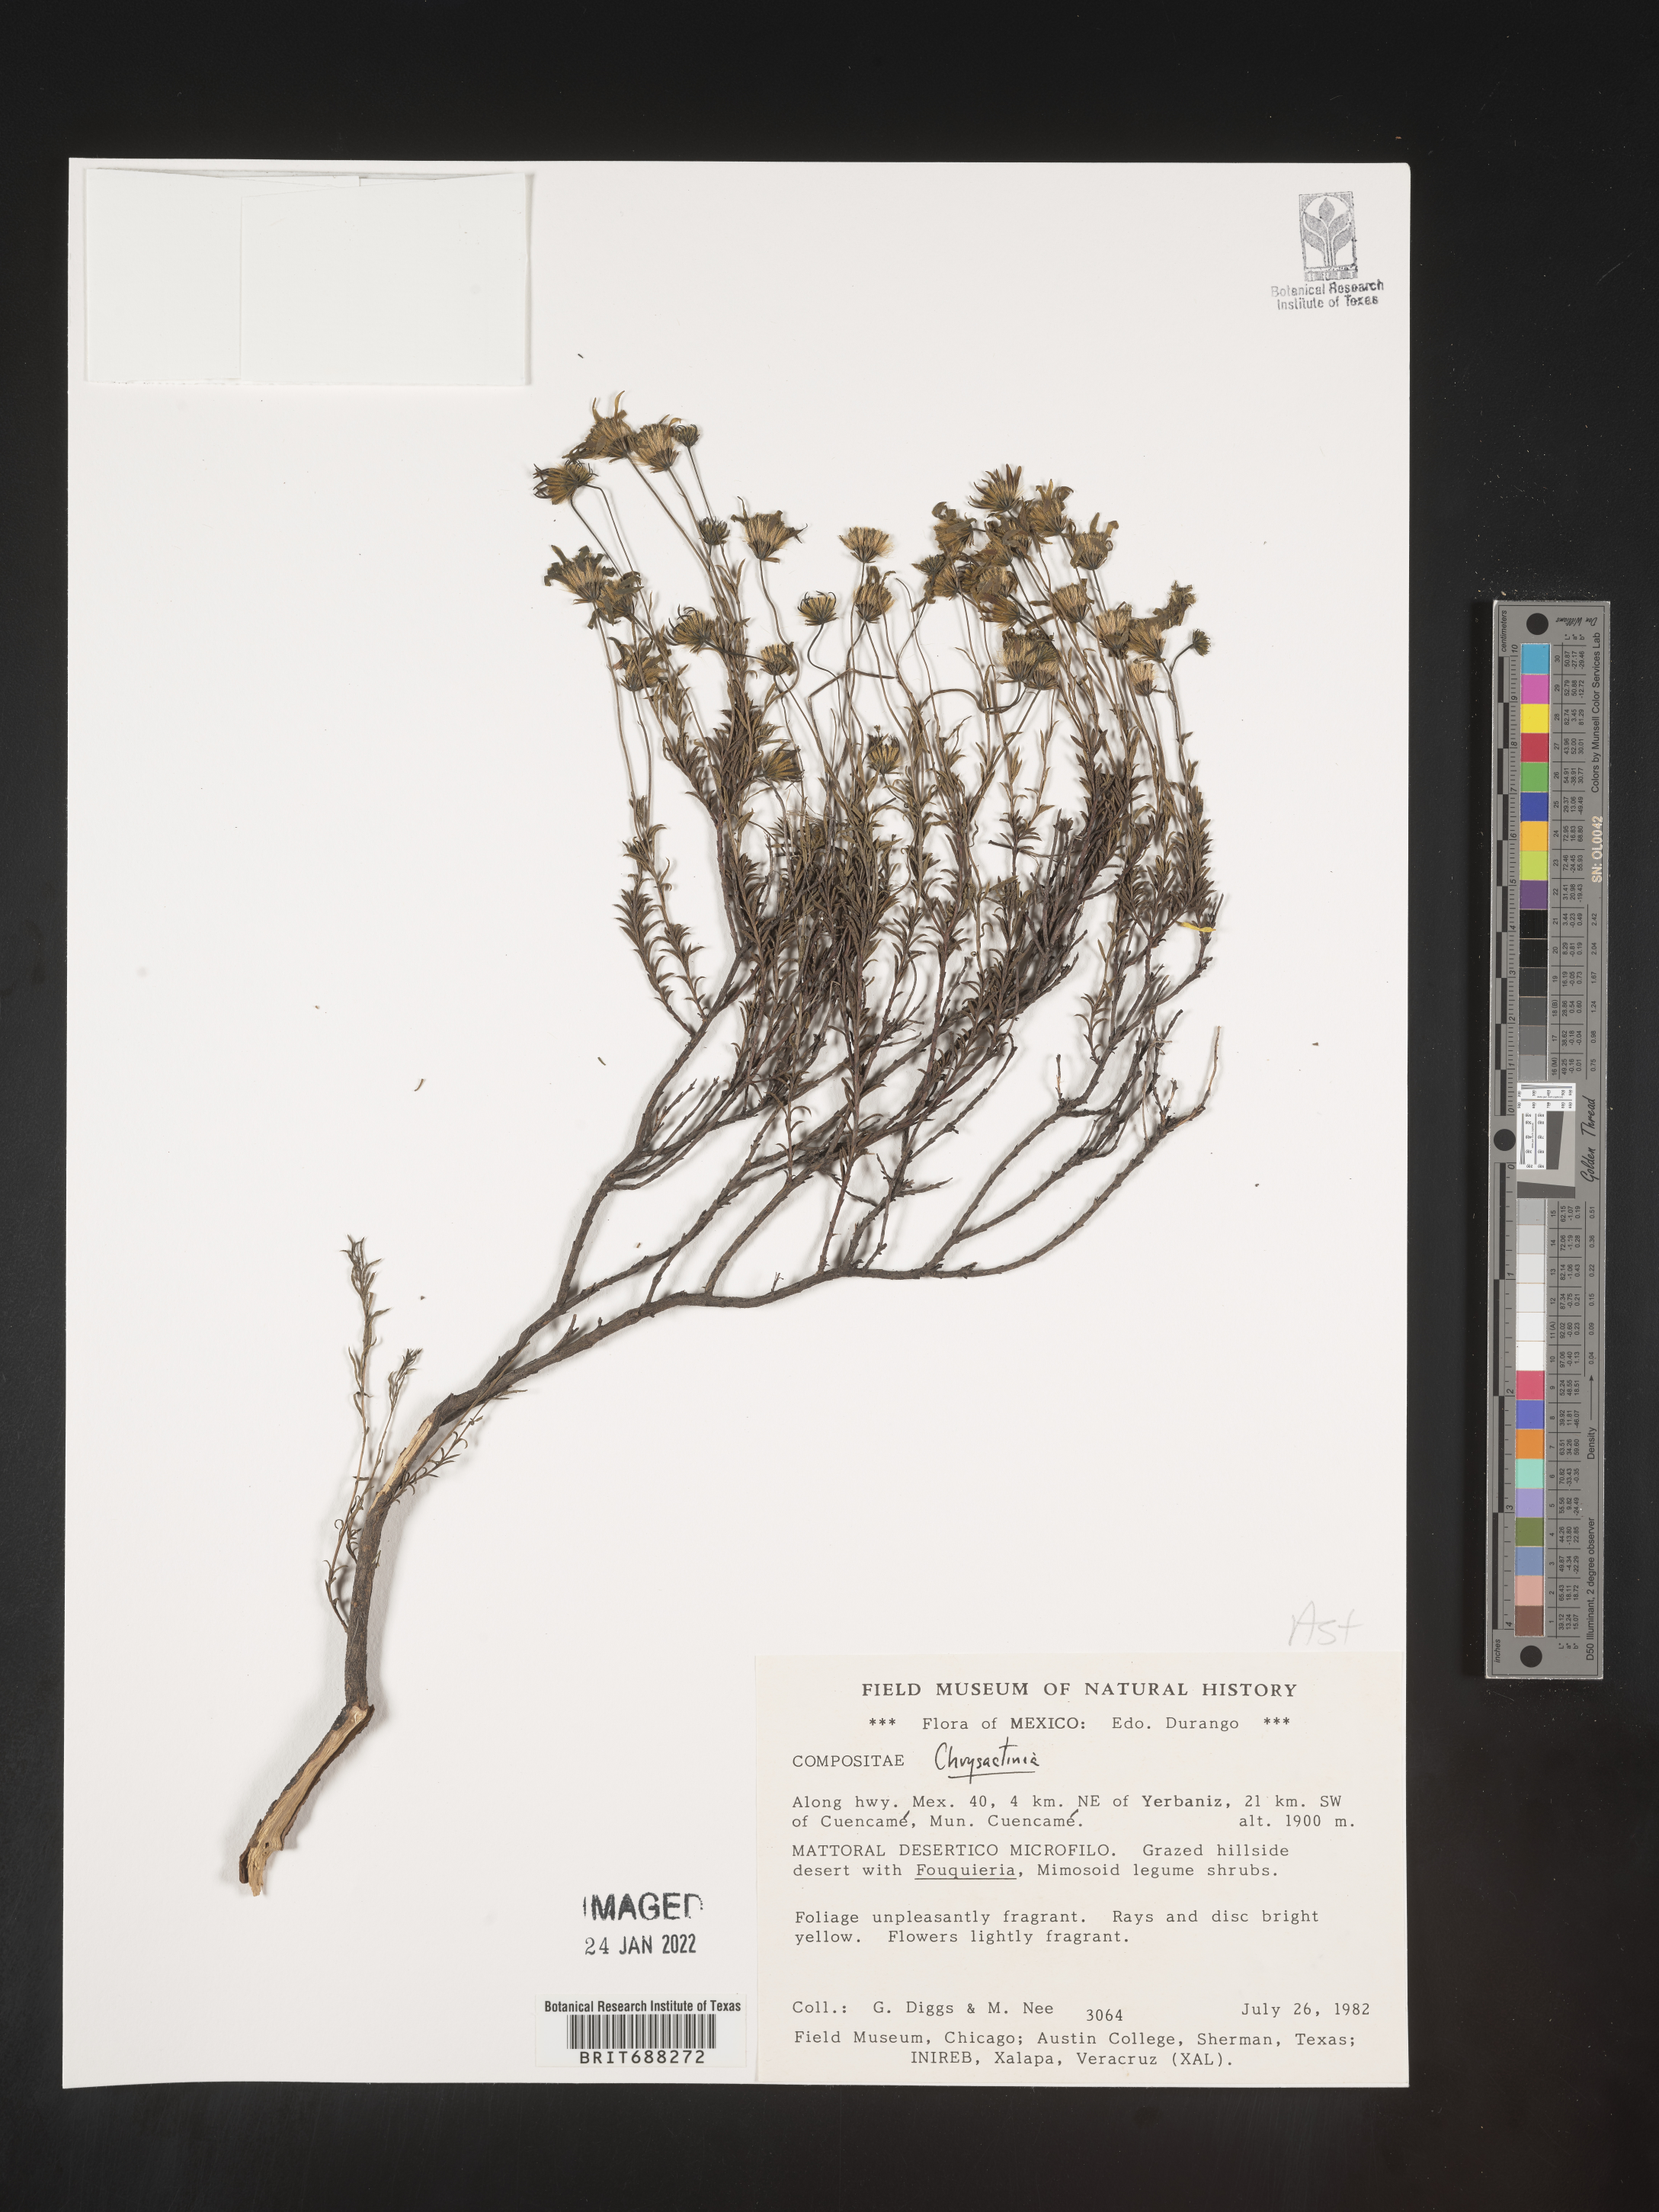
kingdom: Plantae
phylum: Tracheophyta
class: Magnoliopsida
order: Asterales
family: Asteraceae
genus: Chrysactinia
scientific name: Chrysactinia
